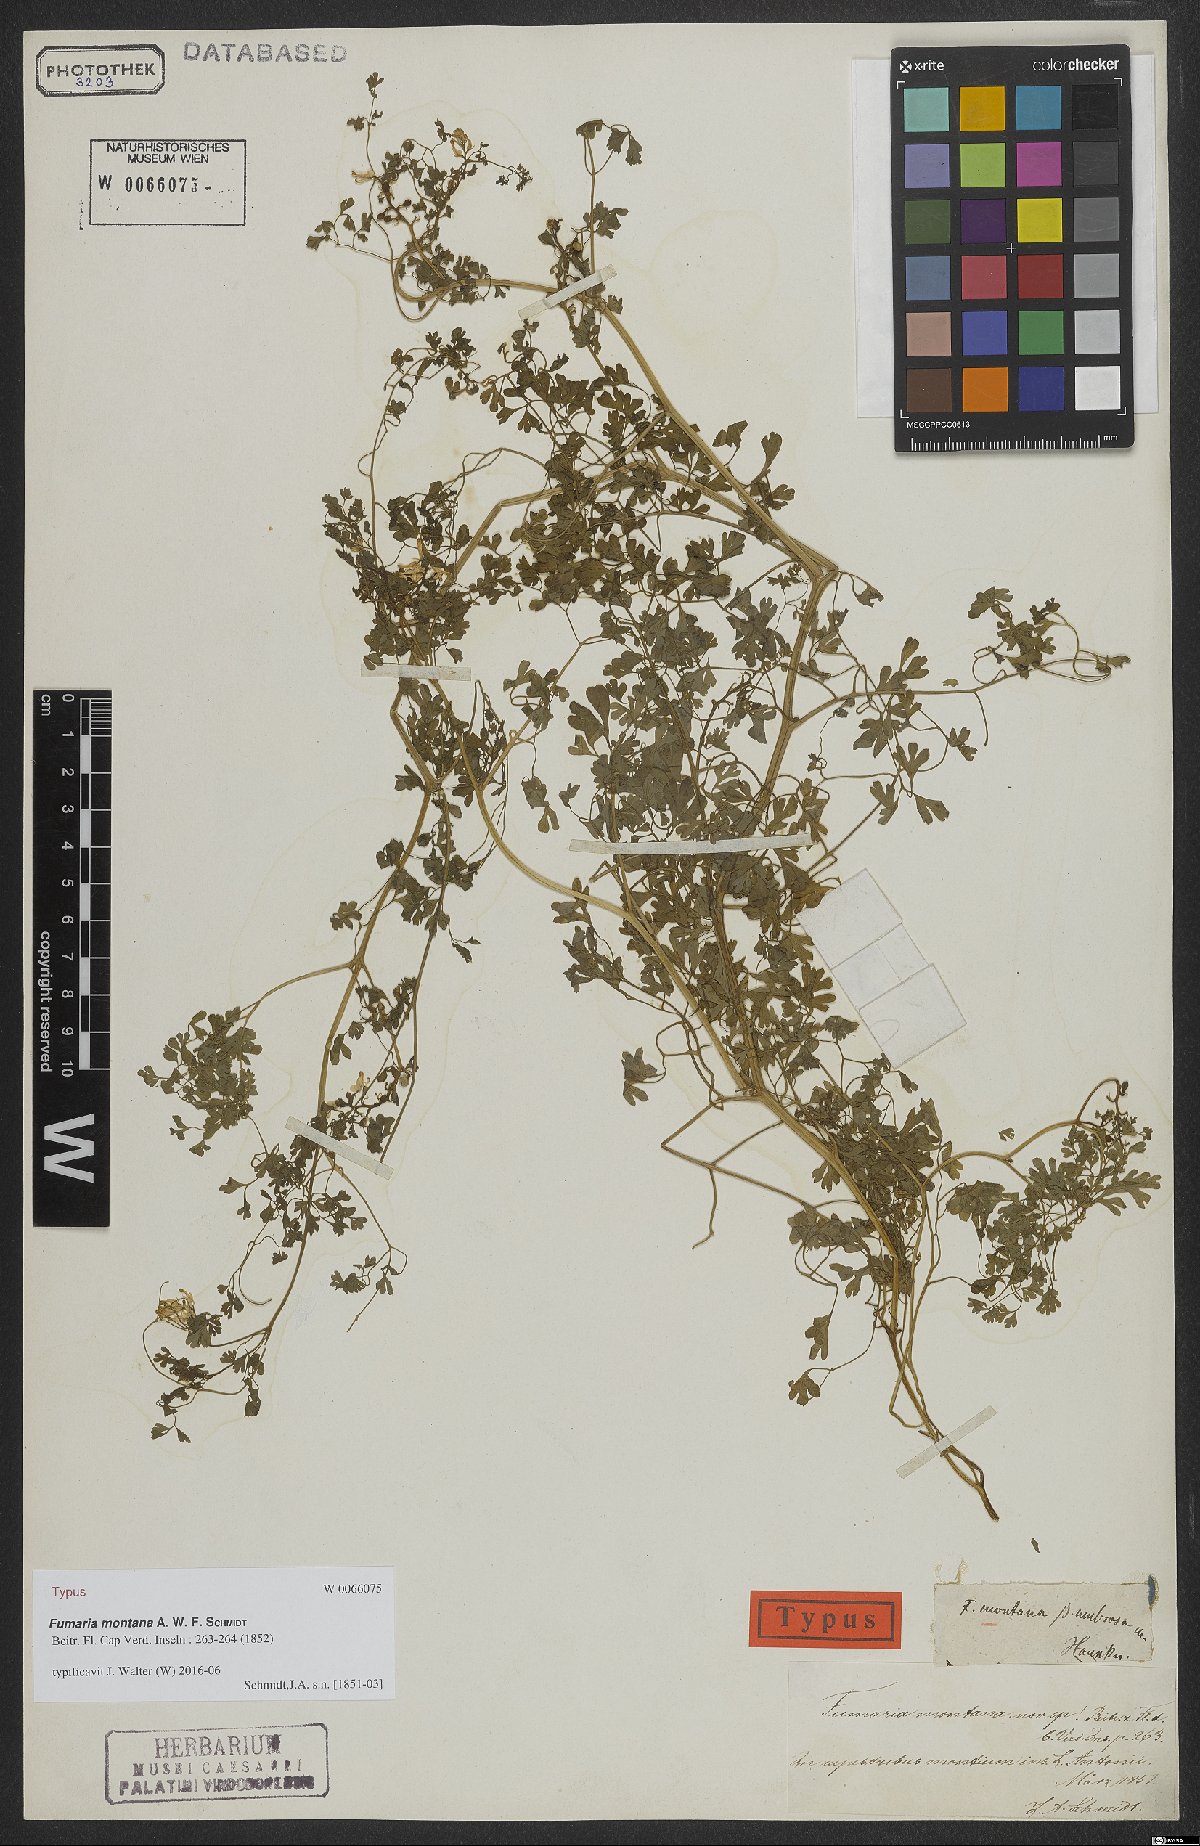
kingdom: Plantae
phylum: Tracheophyta
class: Magnoliopsida
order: Ranunculales
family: Papaveraceae
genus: Fumaria
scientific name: Fumaria montana
